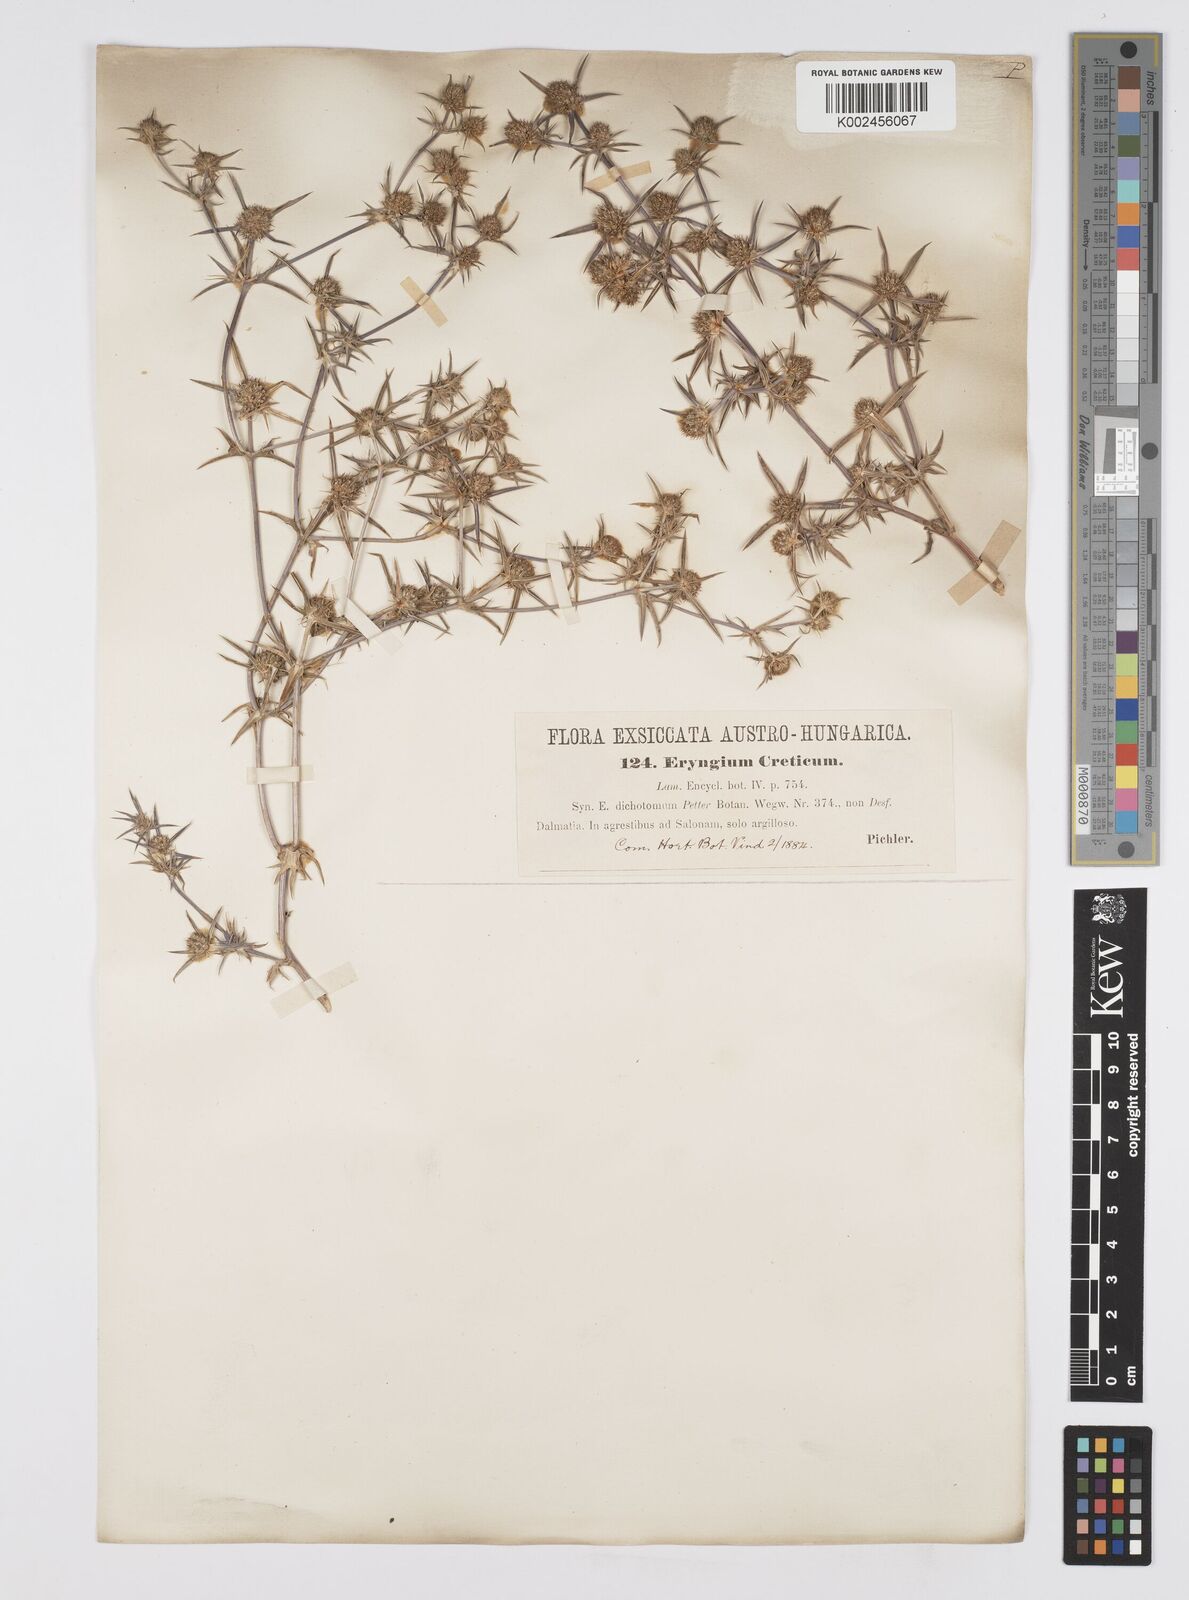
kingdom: Plantae
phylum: Tracheophyta
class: Magnoliopsida
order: Apiales
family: Apiaceae
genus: Eryngium
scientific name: Eryngium creticum
